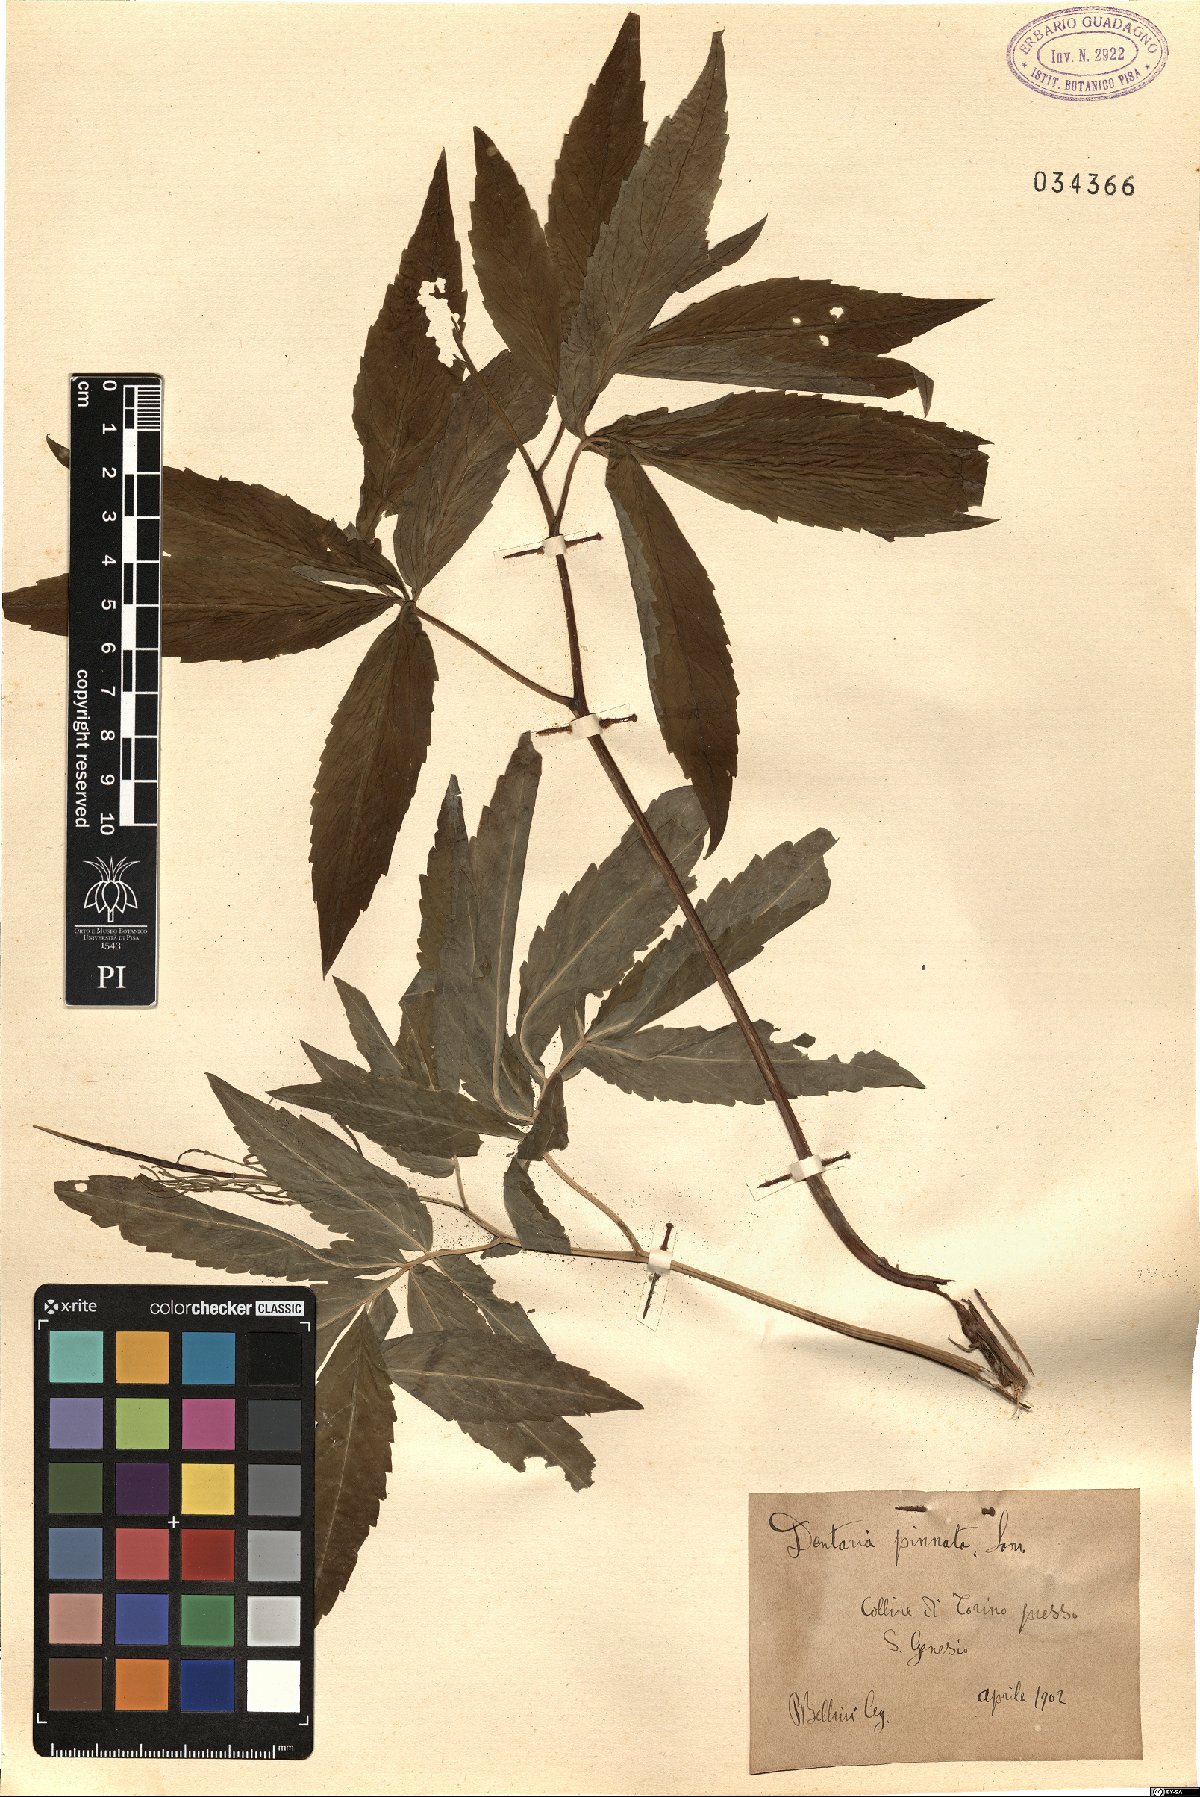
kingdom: Plantae
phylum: Tracheophyta
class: Magnoliopsida
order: Brassicales
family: Brassicaceae
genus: Cardamine
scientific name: Cardamine heptaphylla
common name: Pinnate coralroot
